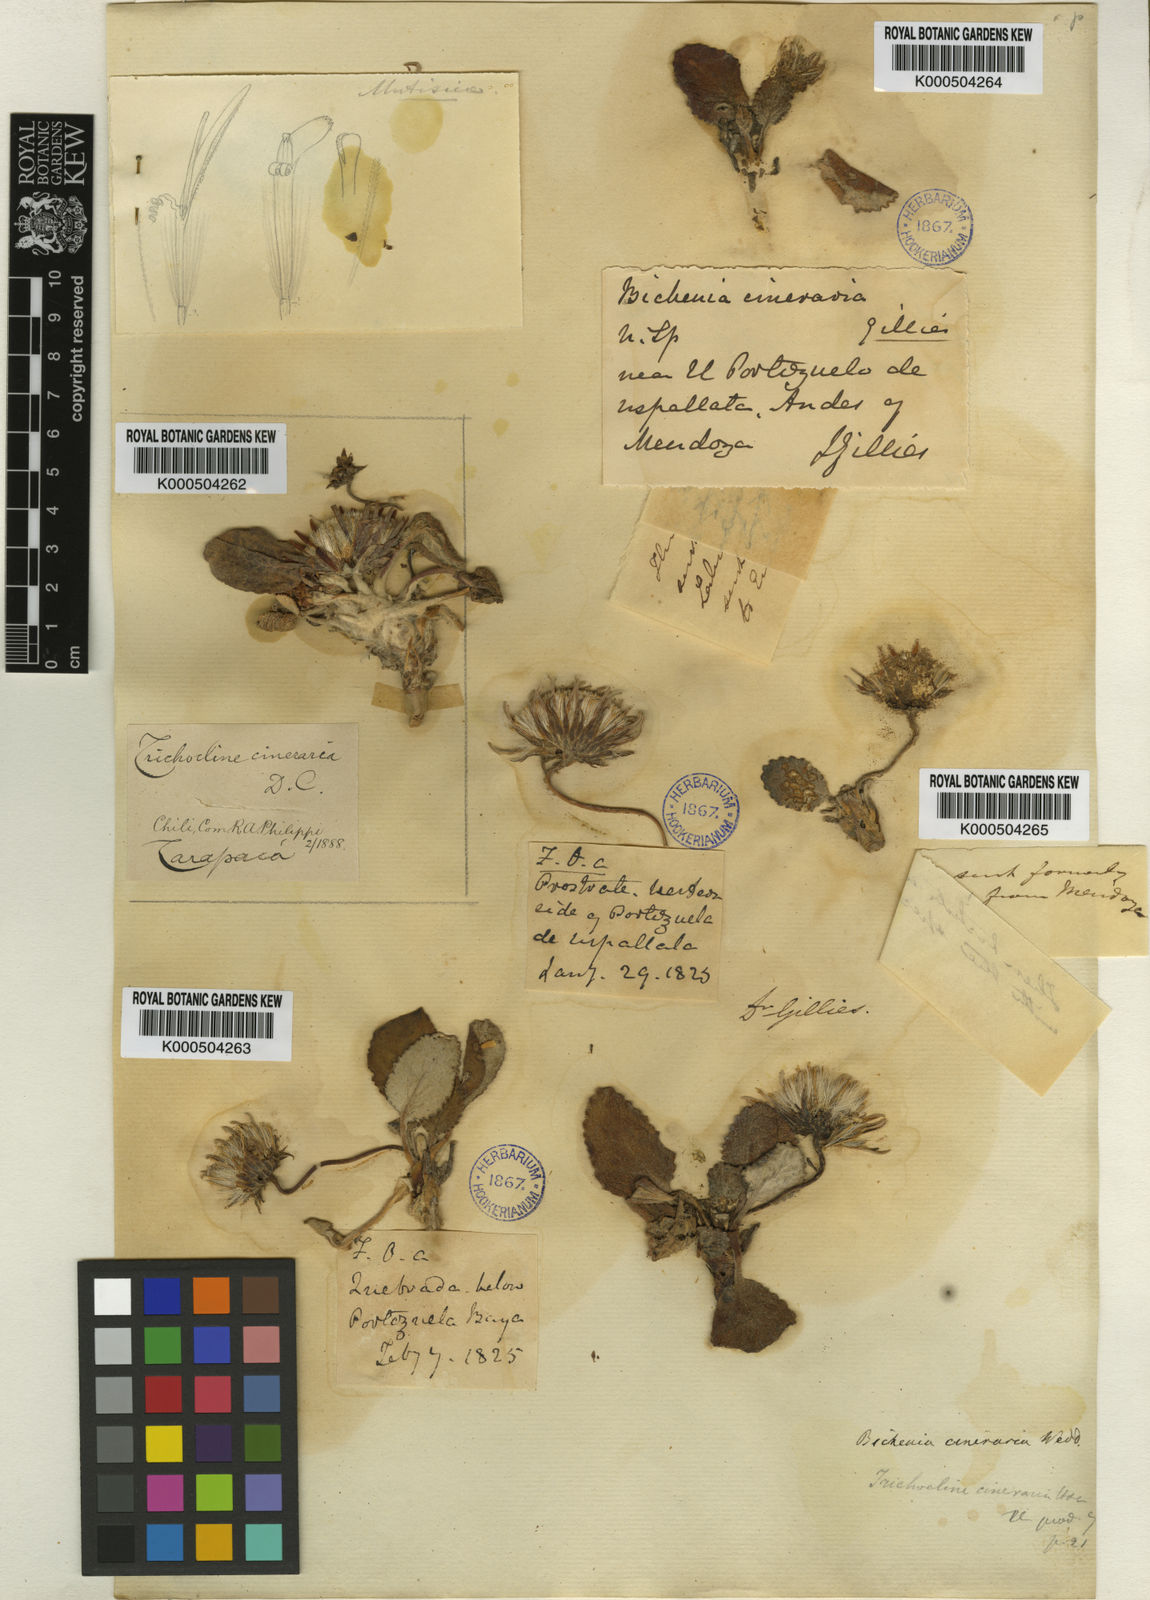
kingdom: Plantae
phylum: Tracheophyta
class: Magnoliopsida
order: Asterales
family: Asteraceae
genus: Trichocline
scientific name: Trichocline cineraria
